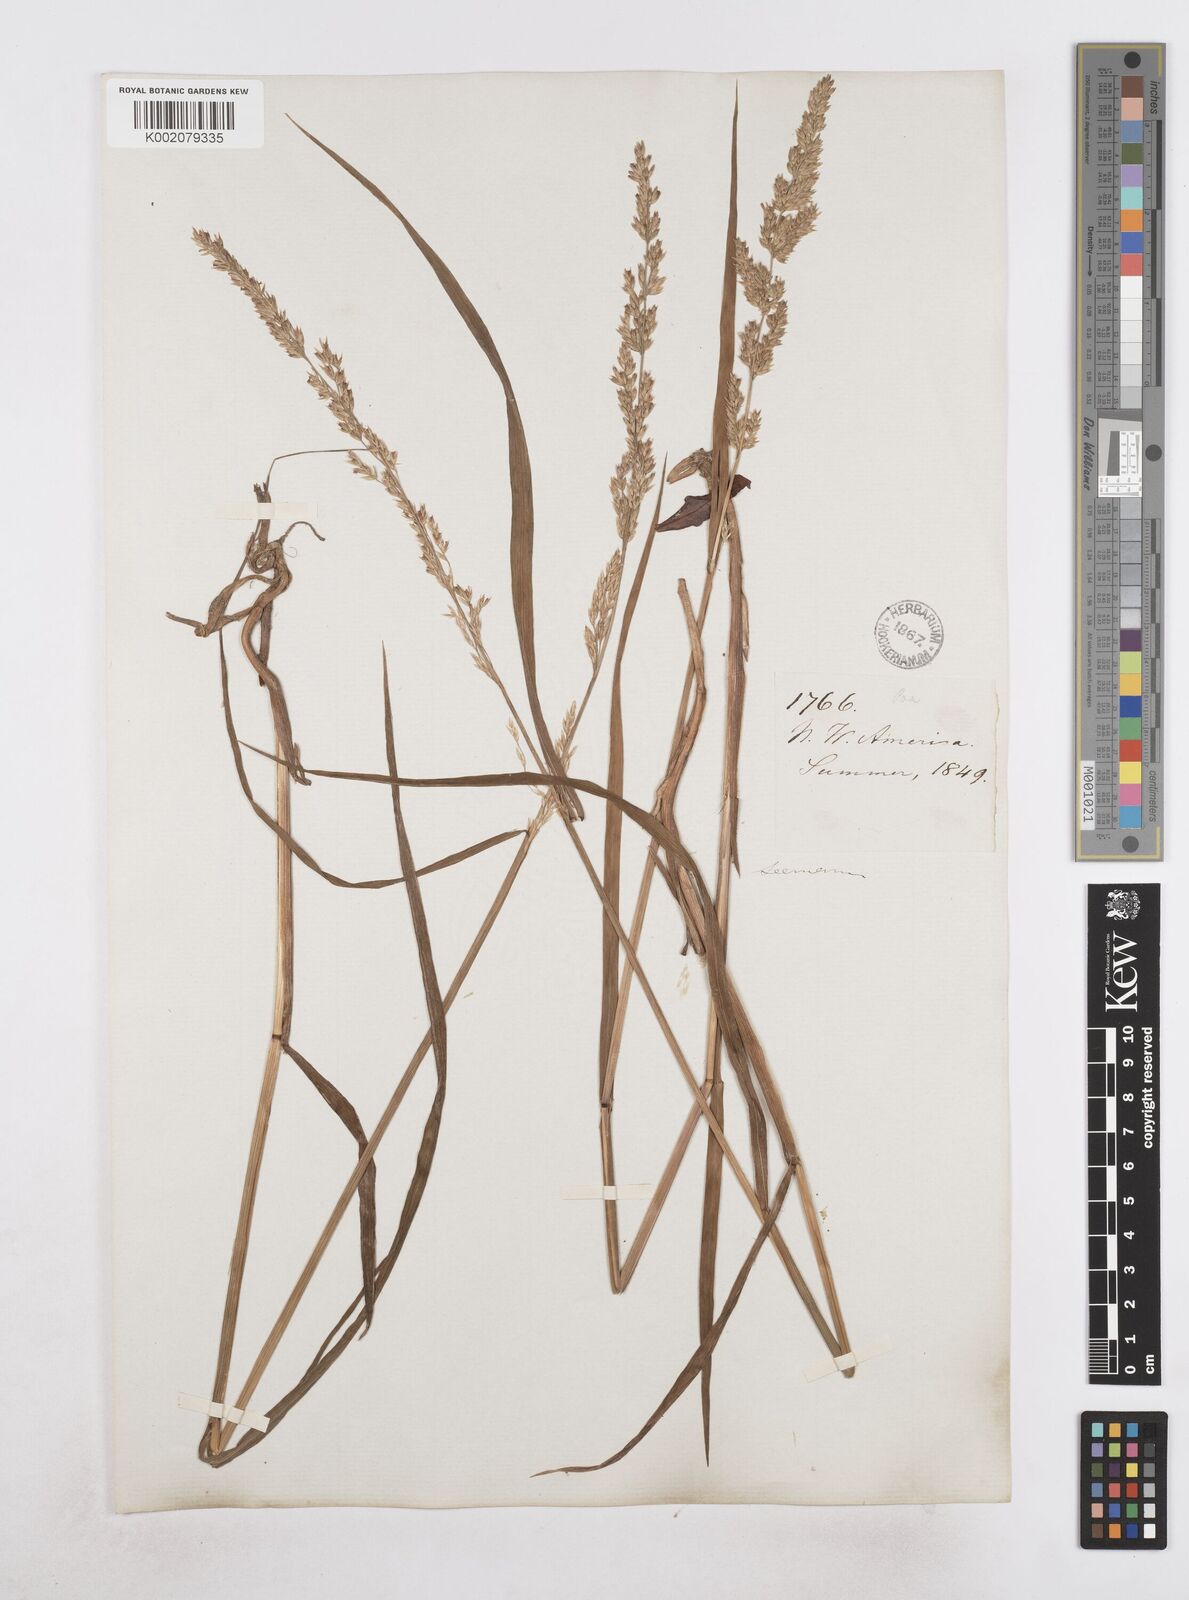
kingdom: Plantae
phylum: Tracheophyta
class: Liliopsida
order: Poales
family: Poaceae
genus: Arctagrostis
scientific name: Arctagrostis arundinacea
